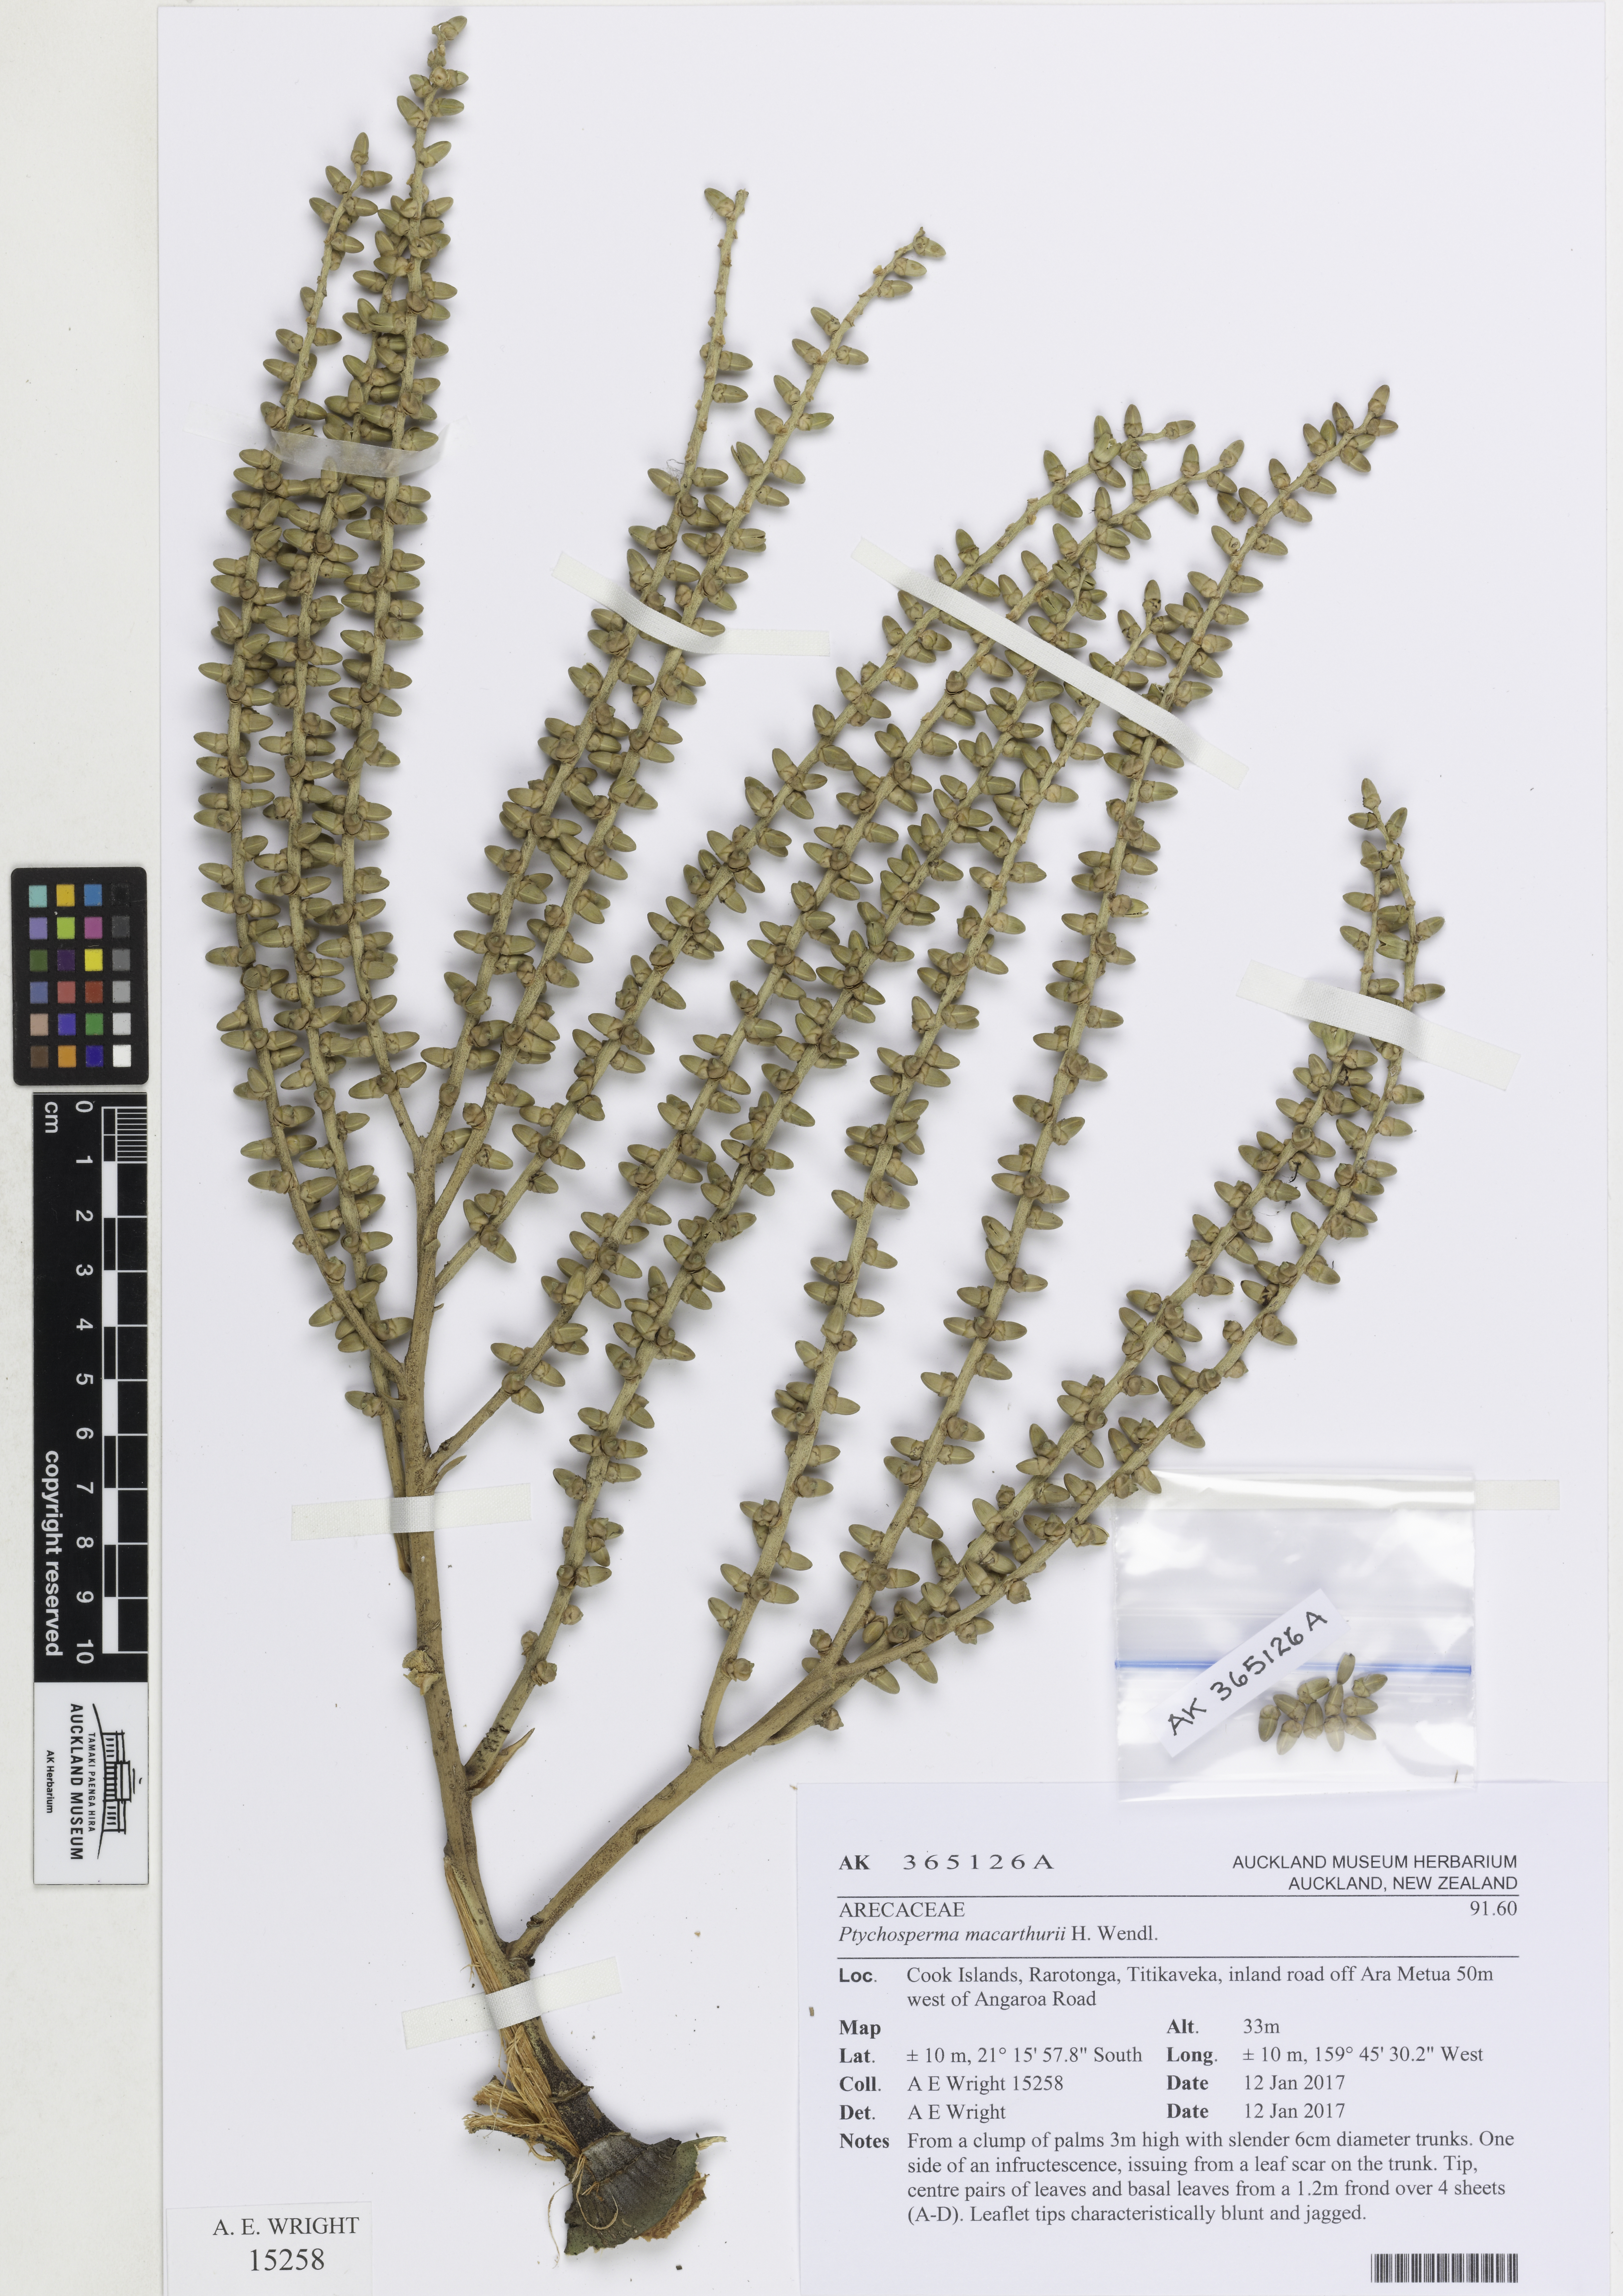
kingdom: Plantae
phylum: Tracheophyta
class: Liliopsida
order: Arecales
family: Arecaceae
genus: Ptychosperma
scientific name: Ptychosperma macarthurii
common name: Macarthur palm
